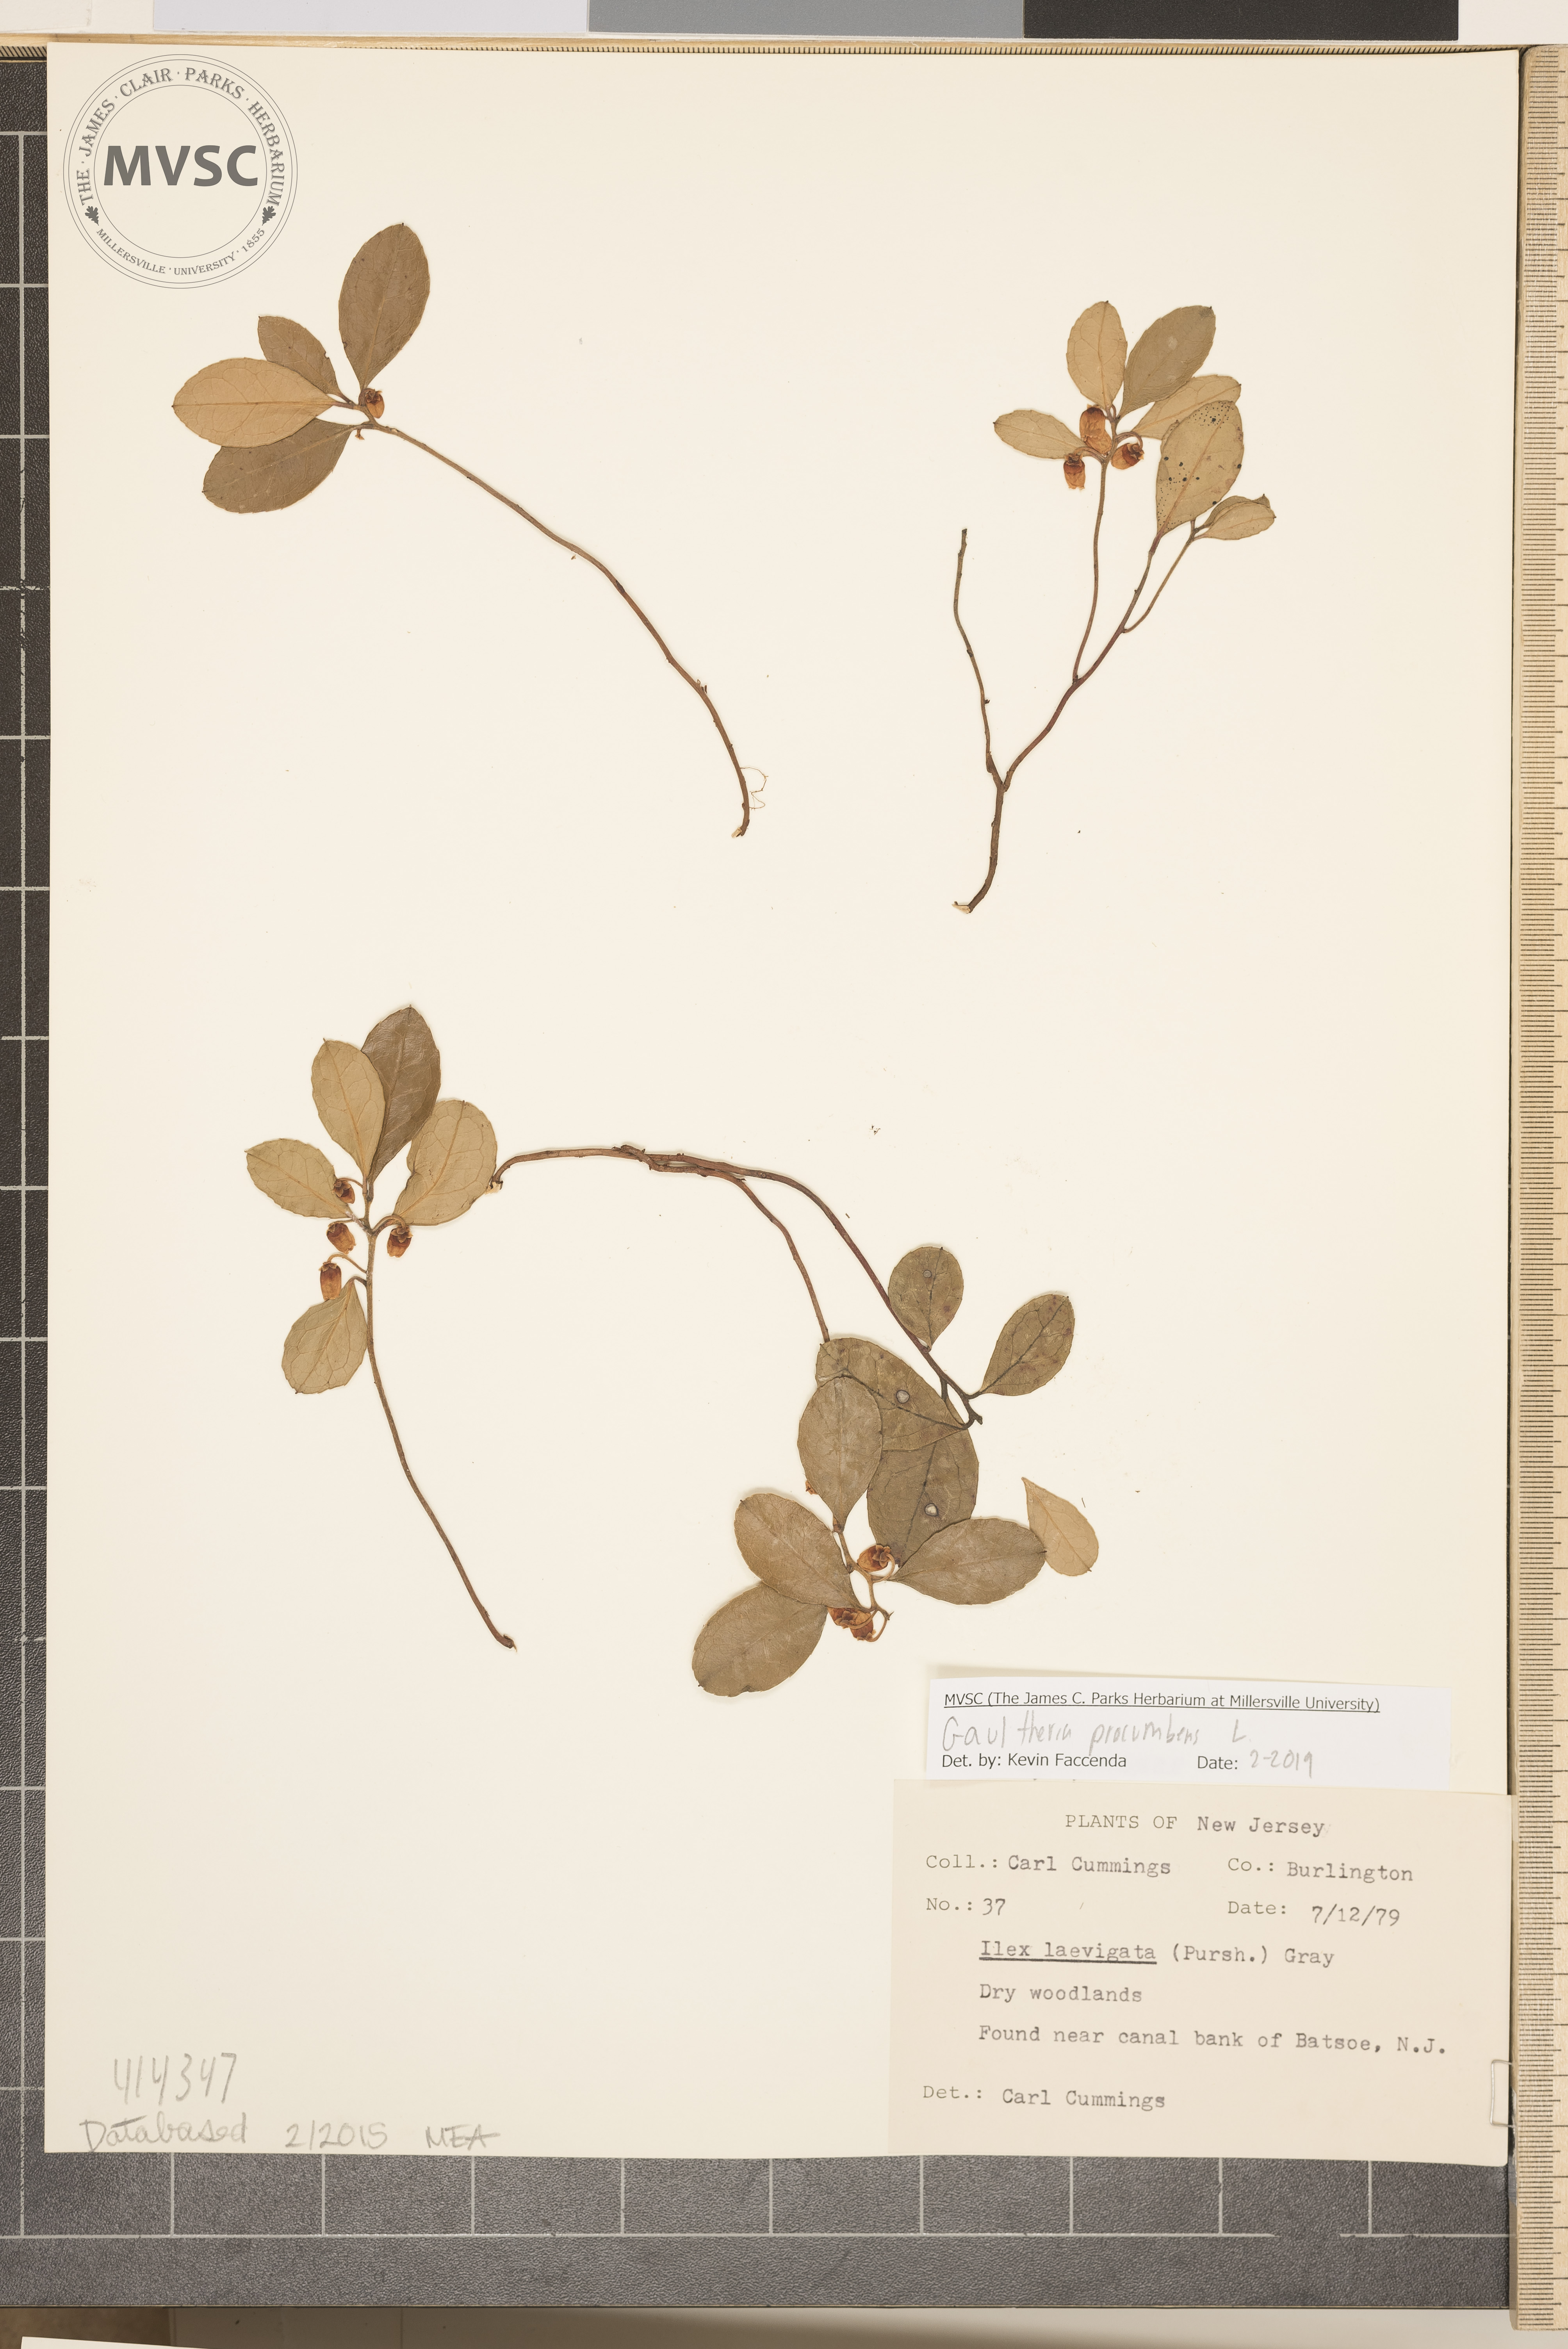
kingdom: Plantae
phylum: Tracheophyta
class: Magnoliopsida
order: Ericales
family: Ericaceae
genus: Gaultheria
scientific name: Gaultheria procumbens
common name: Checkerberry
